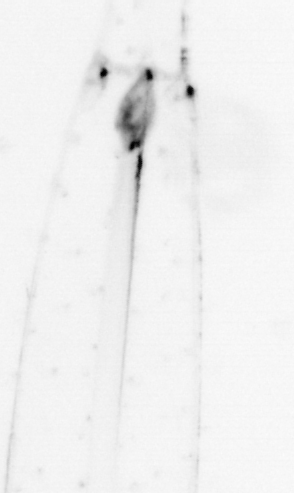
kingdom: Animalia
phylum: Chaetognatha
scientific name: Chaetognatha
